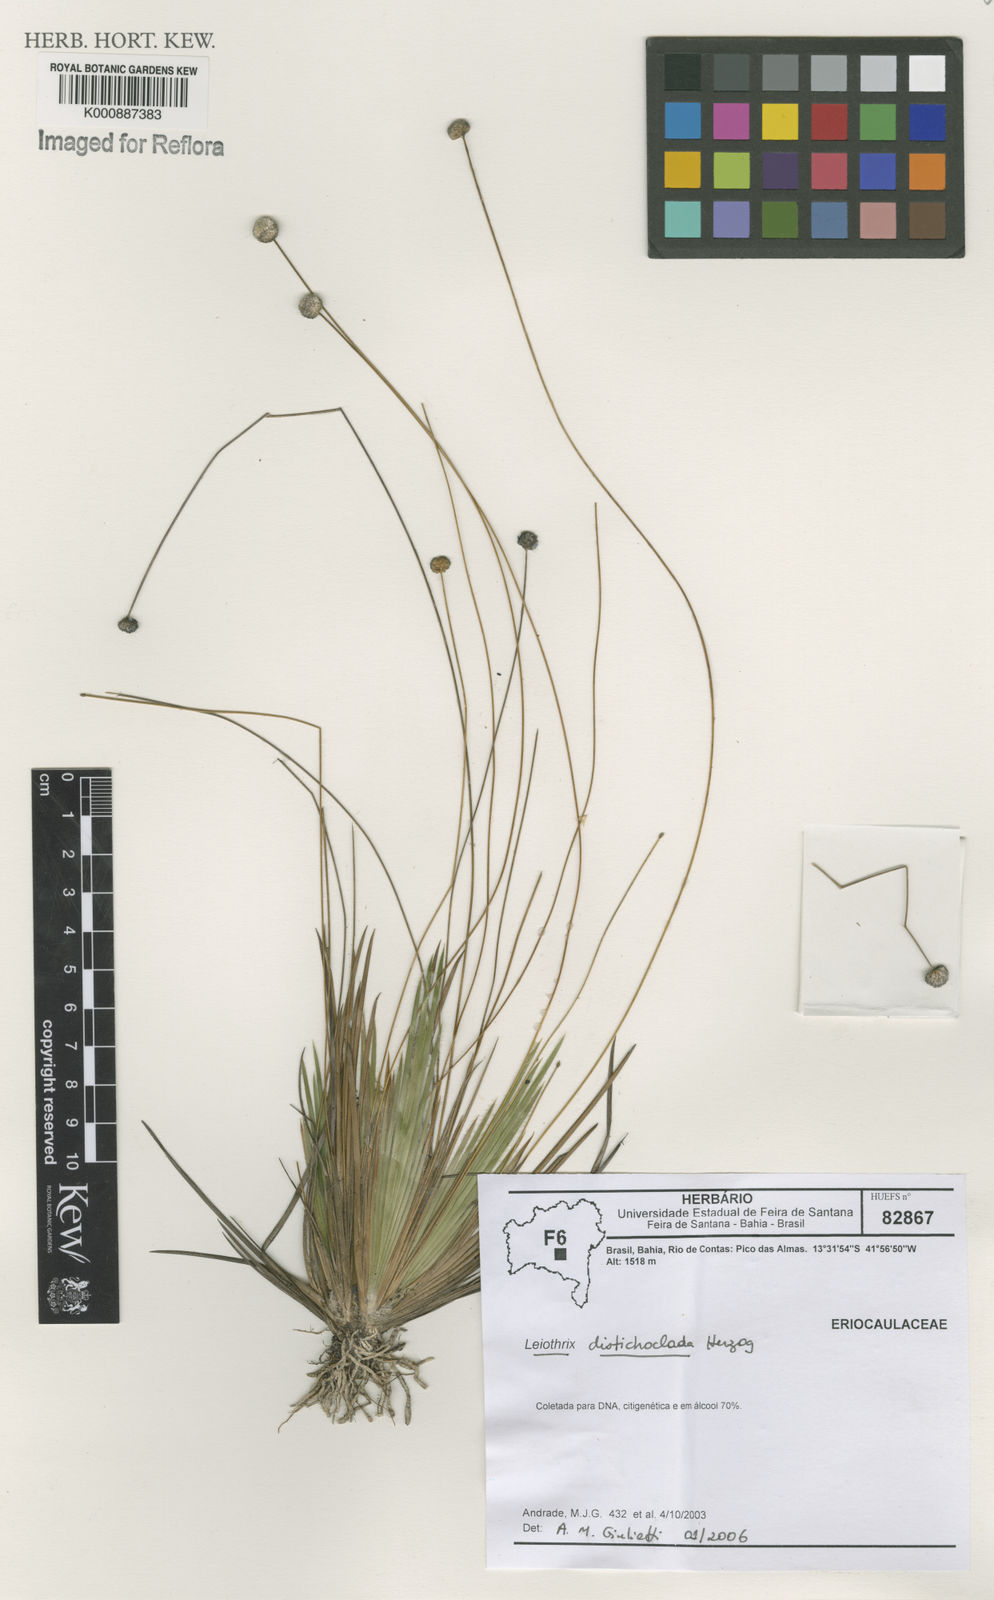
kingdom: Plantae
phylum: Tracheophyta
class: Liliopsida
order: Poales
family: Eriocaulaceae
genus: Leiothrix
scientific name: Leiothrix flavescens
